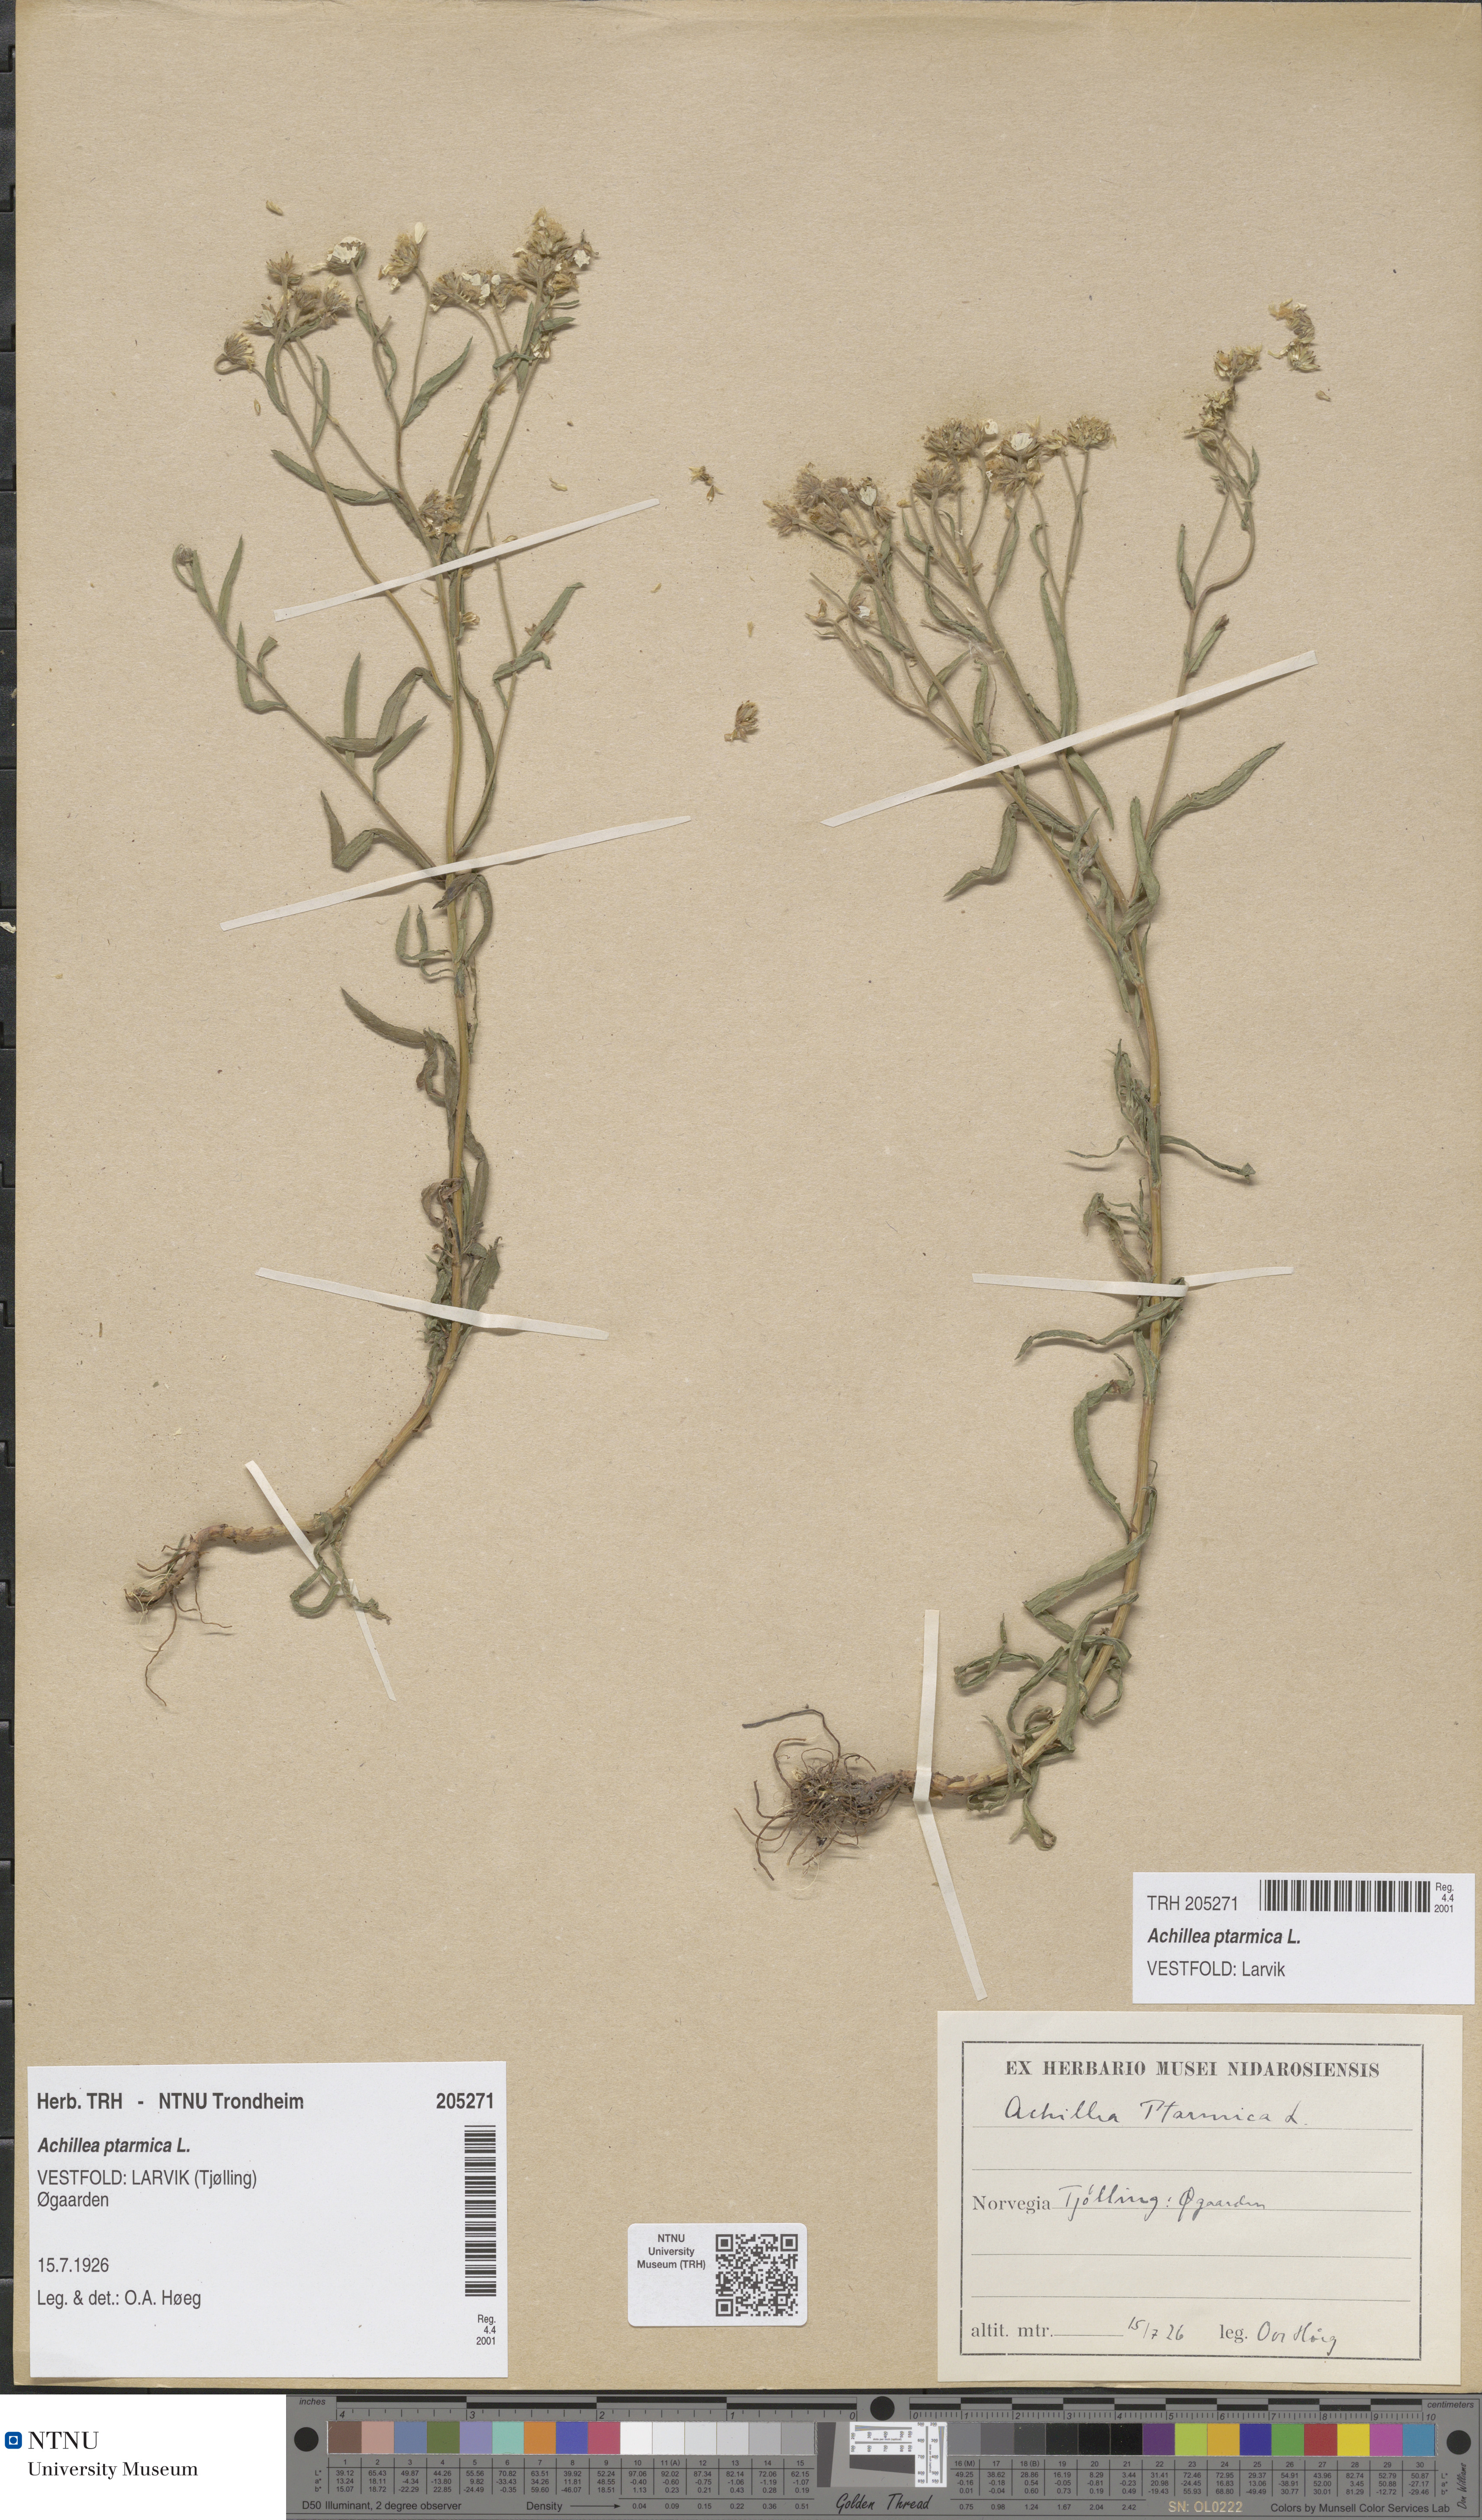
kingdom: Plantae
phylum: Tracheophyta
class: Magnoliopsida
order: Asterales
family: Asteraceae
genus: Achillea
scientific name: Achillea ptarmica
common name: Sneezeweed
